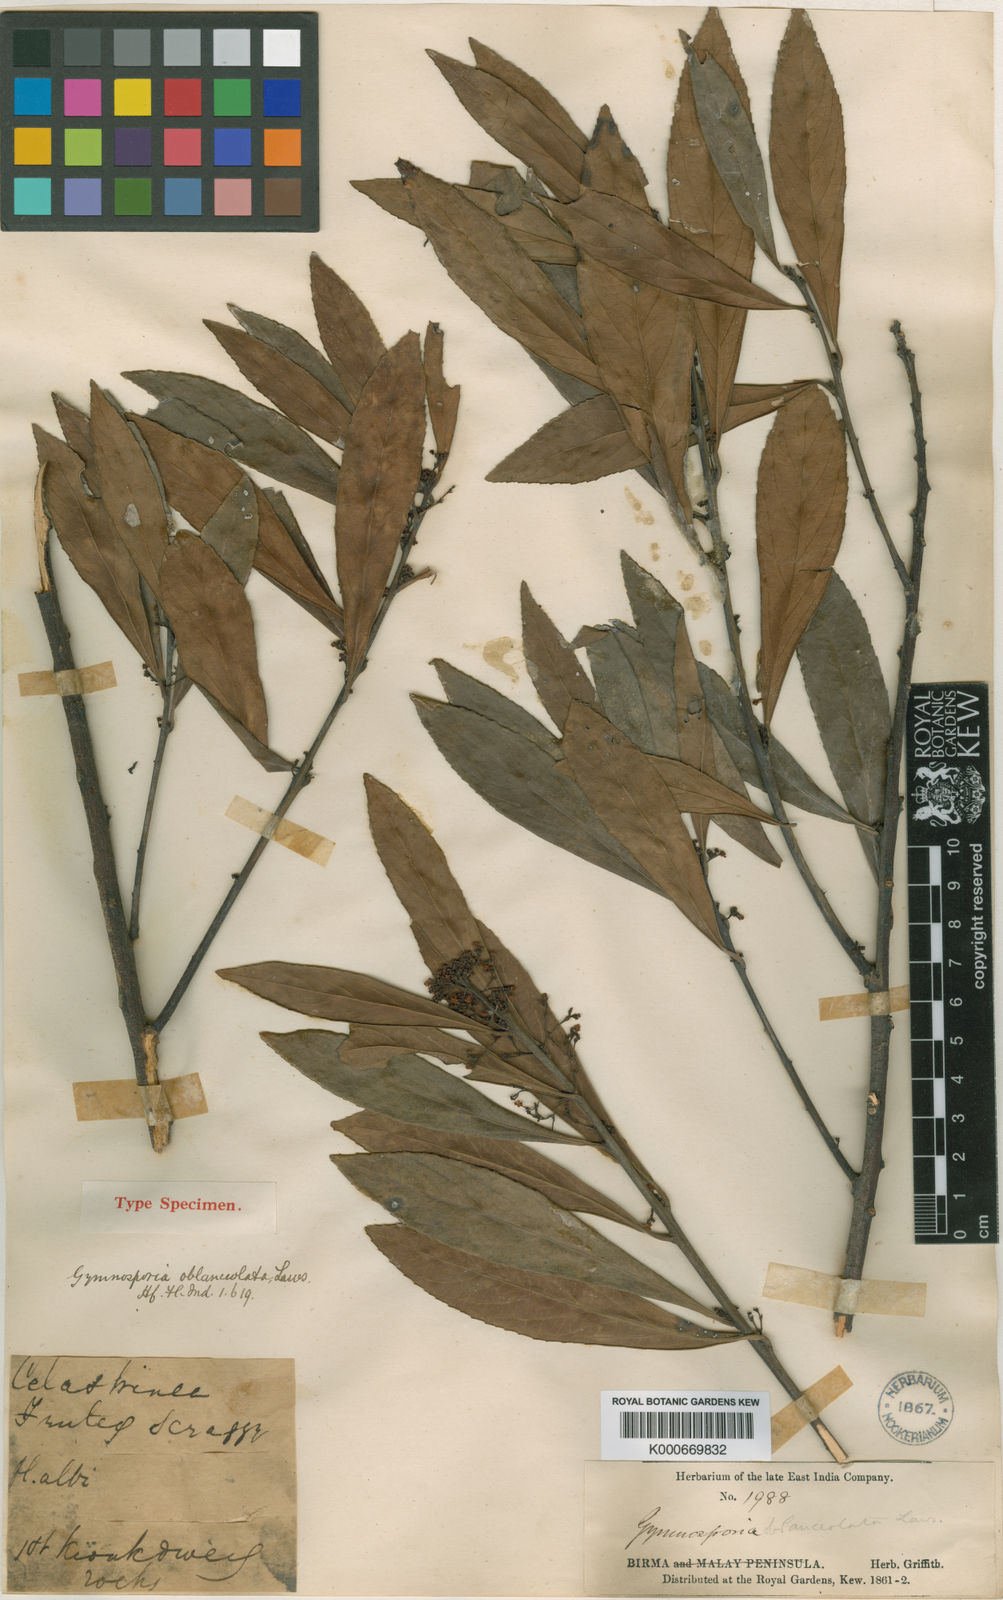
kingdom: Plantae
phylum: Tracheophyta
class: Magnoliopsida
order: Celastrales
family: Celastraceae
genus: Gymnosporia
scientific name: Gymnosporia
